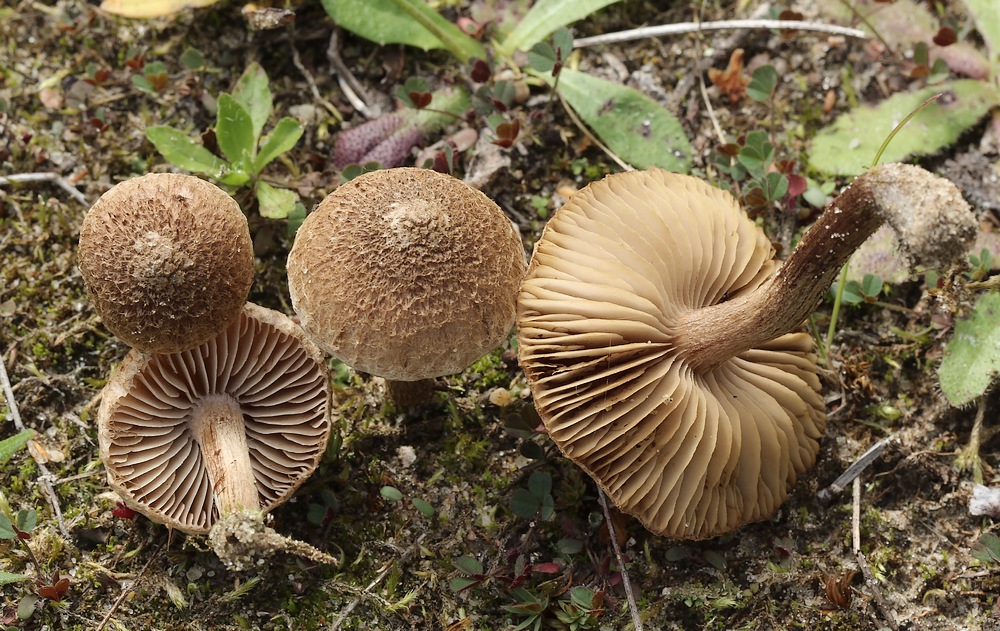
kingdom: Fungi
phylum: Basidiomycota
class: Agaricomycetes
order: Agaricales
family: Inocybaceae
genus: Inocybe
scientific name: Inocybe lacera
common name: laset trævlhat
